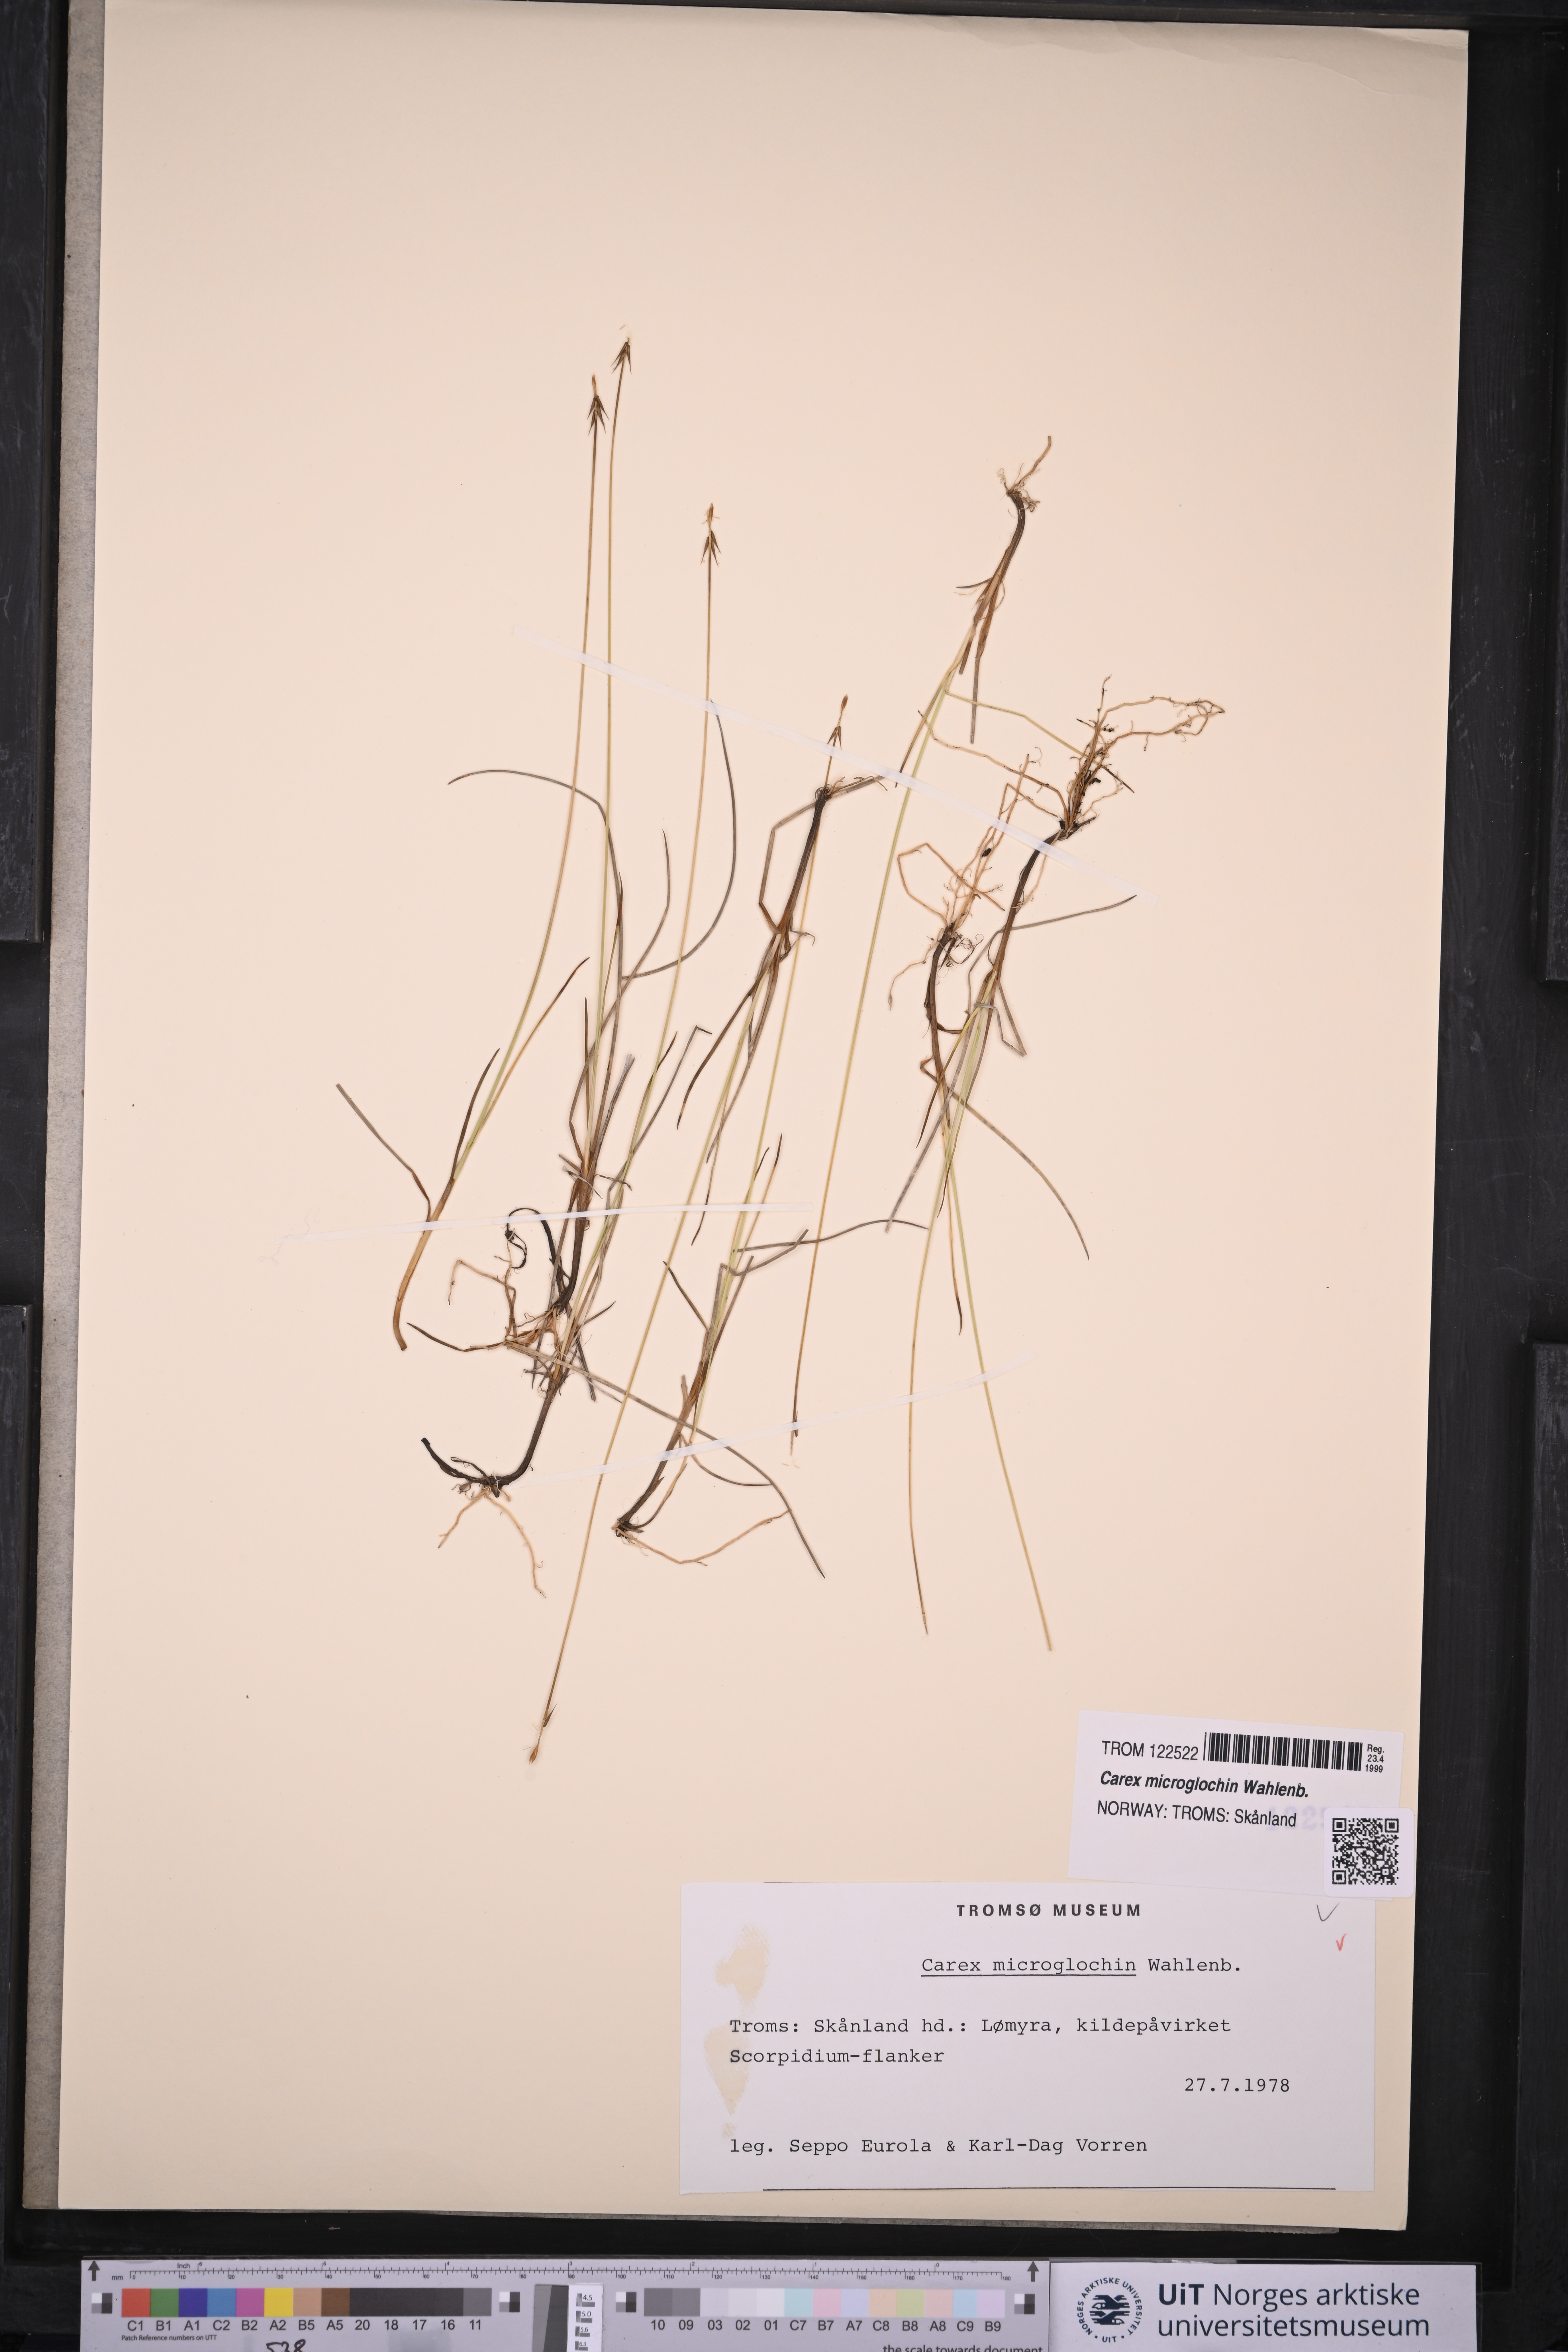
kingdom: Plantae
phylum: Tracheophyta
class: Liliopsida
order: Poales
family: Cyperaceae
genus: Carex
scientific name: Carex microglochin
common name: Bristle sedge
